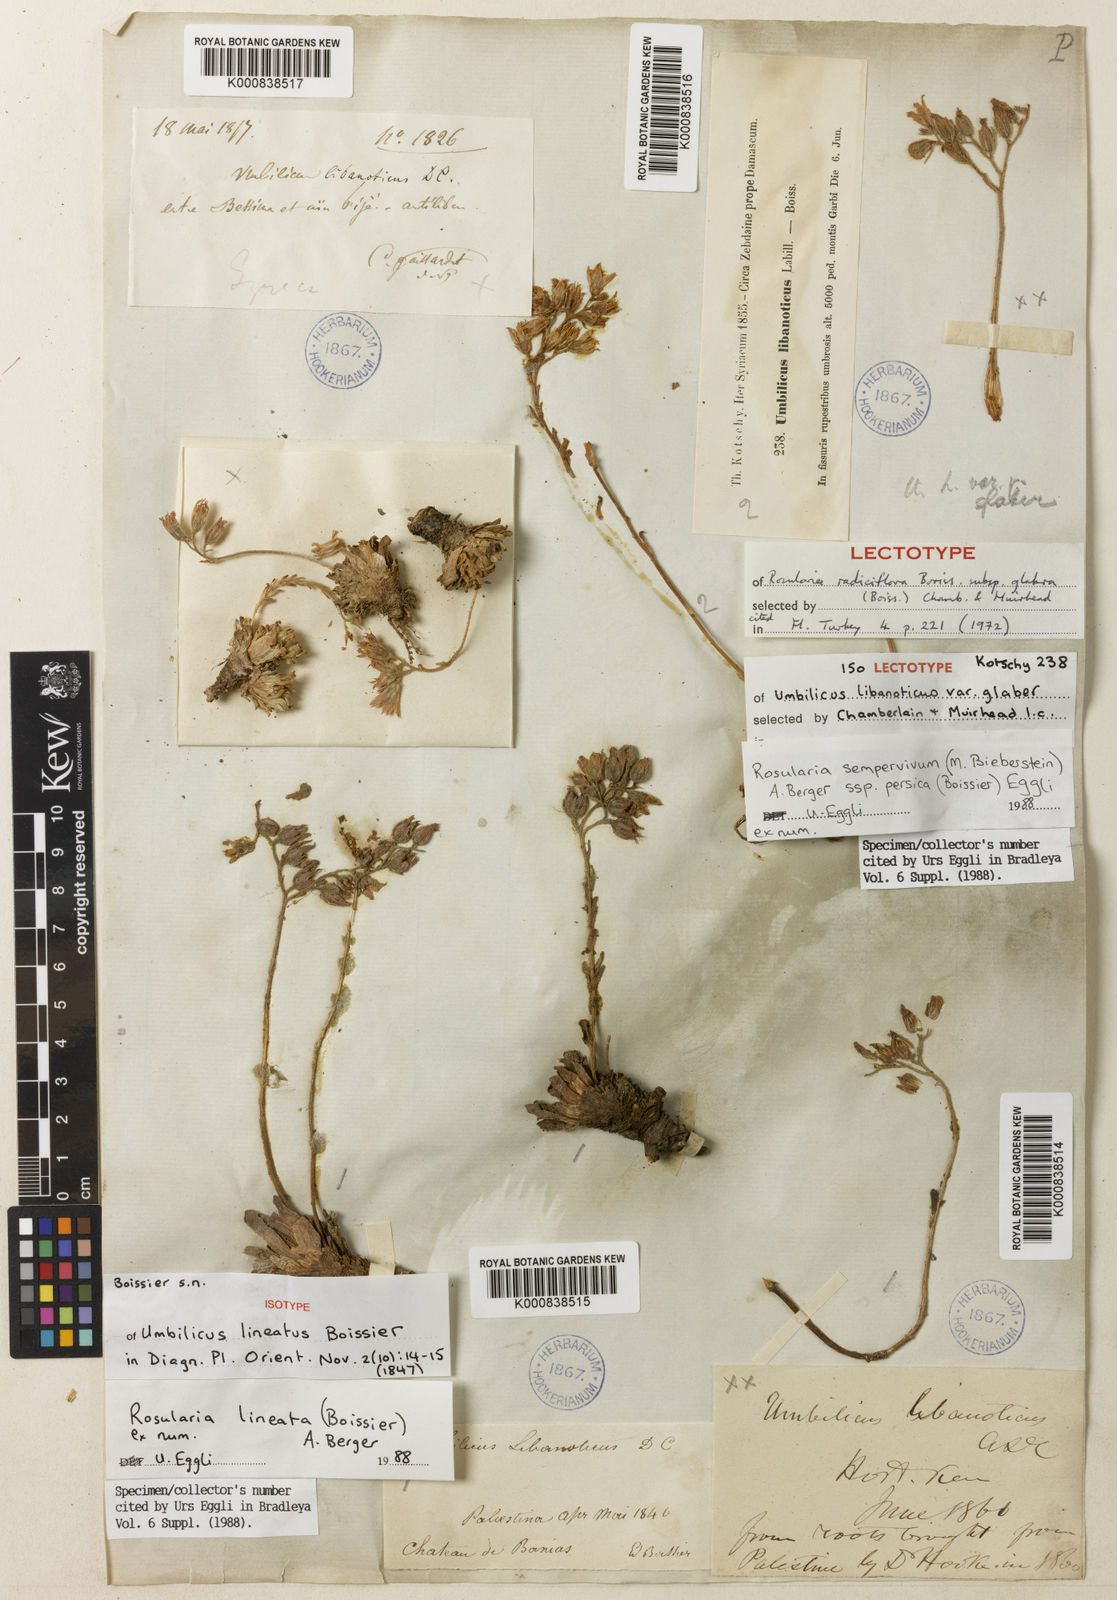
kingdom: Plantae
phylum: Tracheophyta
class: Magnoliopsida
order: Saxifragales
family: Crassulaceae
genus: Rosularia
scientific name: Rosularia sempervivum
